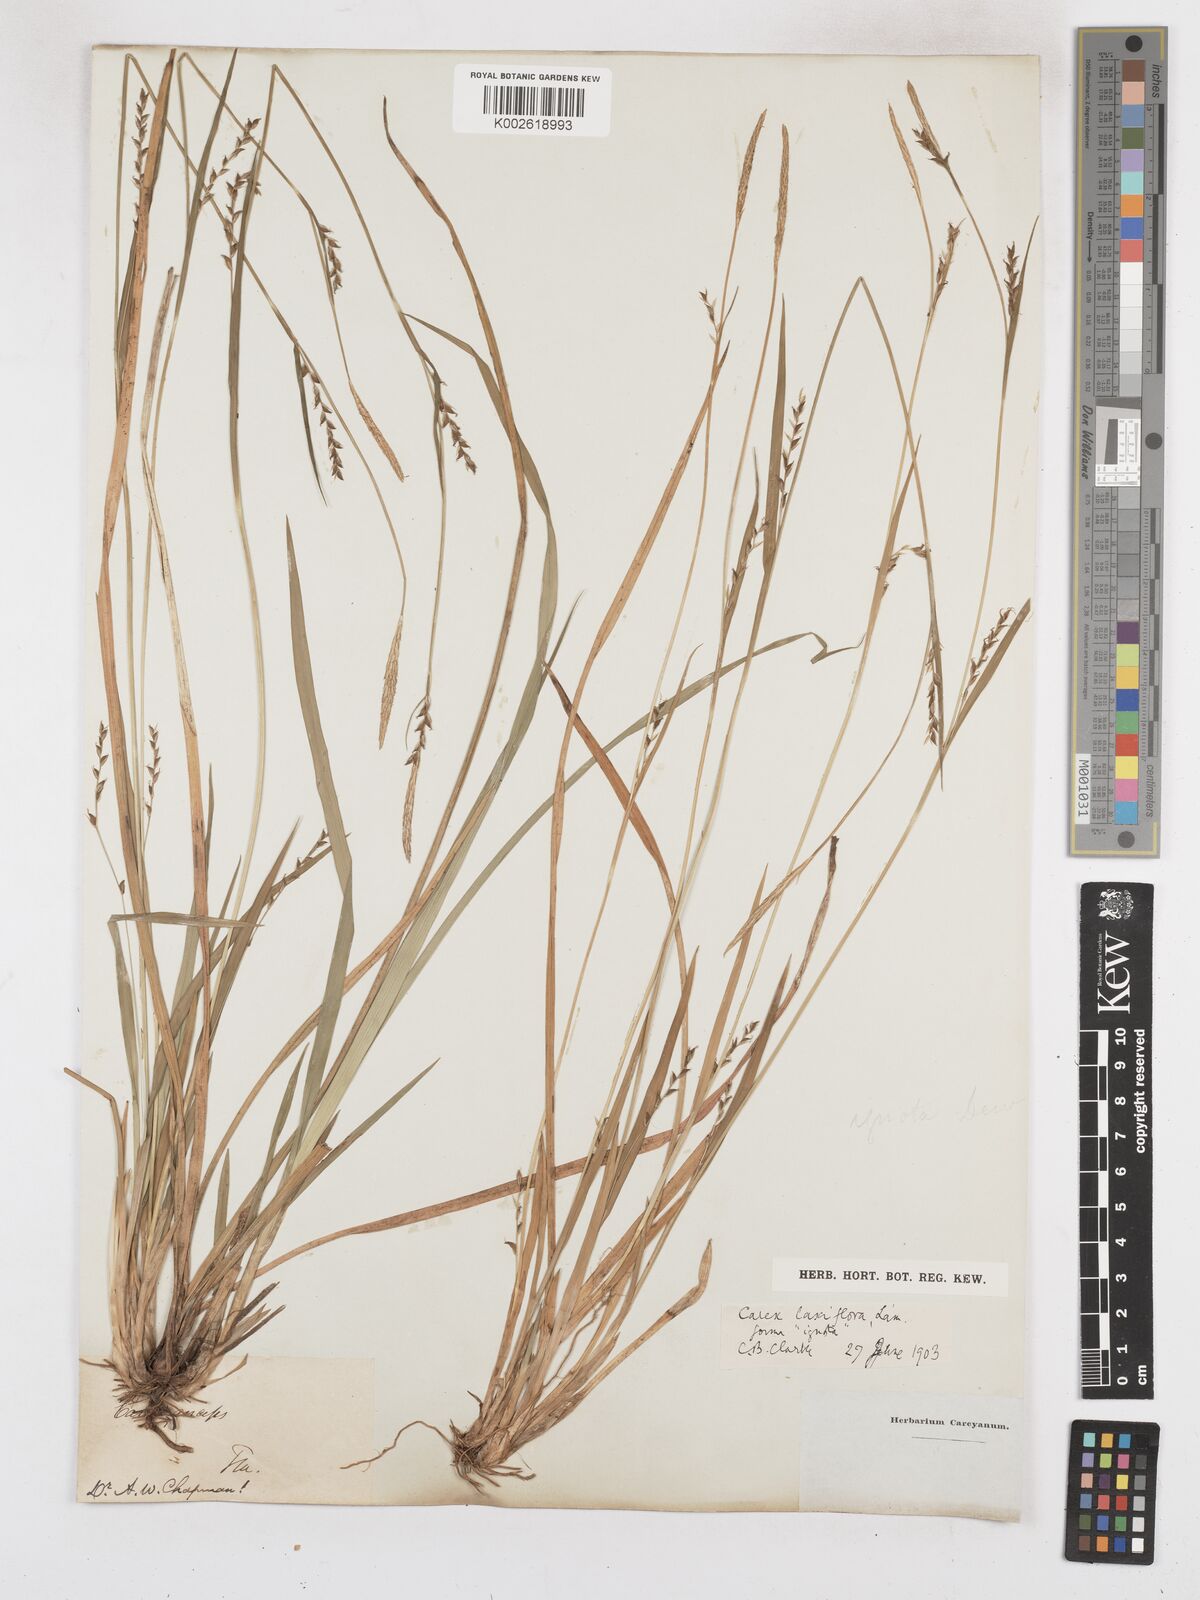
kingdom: Plantae
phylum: Tracheophyta
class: Liliopsida
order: Poales
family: Cyperaceae
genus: Carex
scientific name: Carex striatula
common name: Lined sedge
